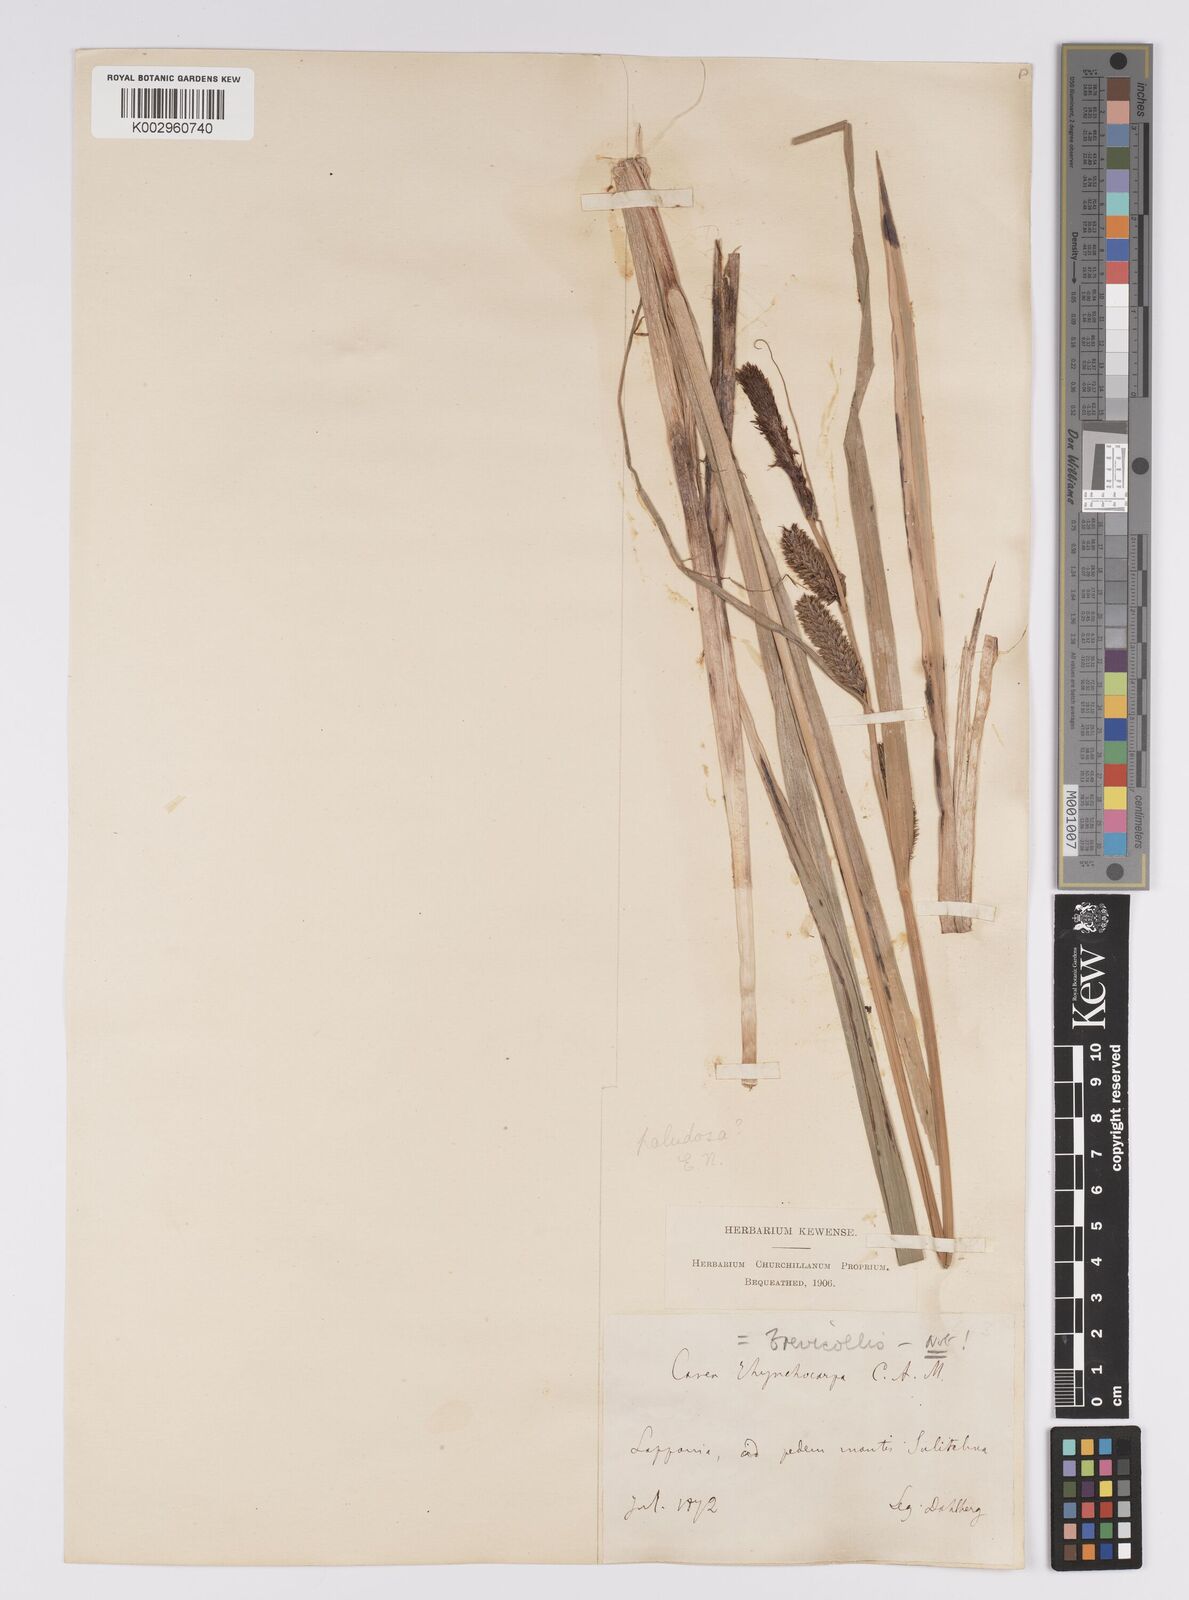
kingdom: Plantae
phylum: Tracheophyta
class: Liliopsida
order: Poales
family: Cyperaceae
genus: Carex
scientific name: Carex acutiformis
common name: Lesser pond-sedge
